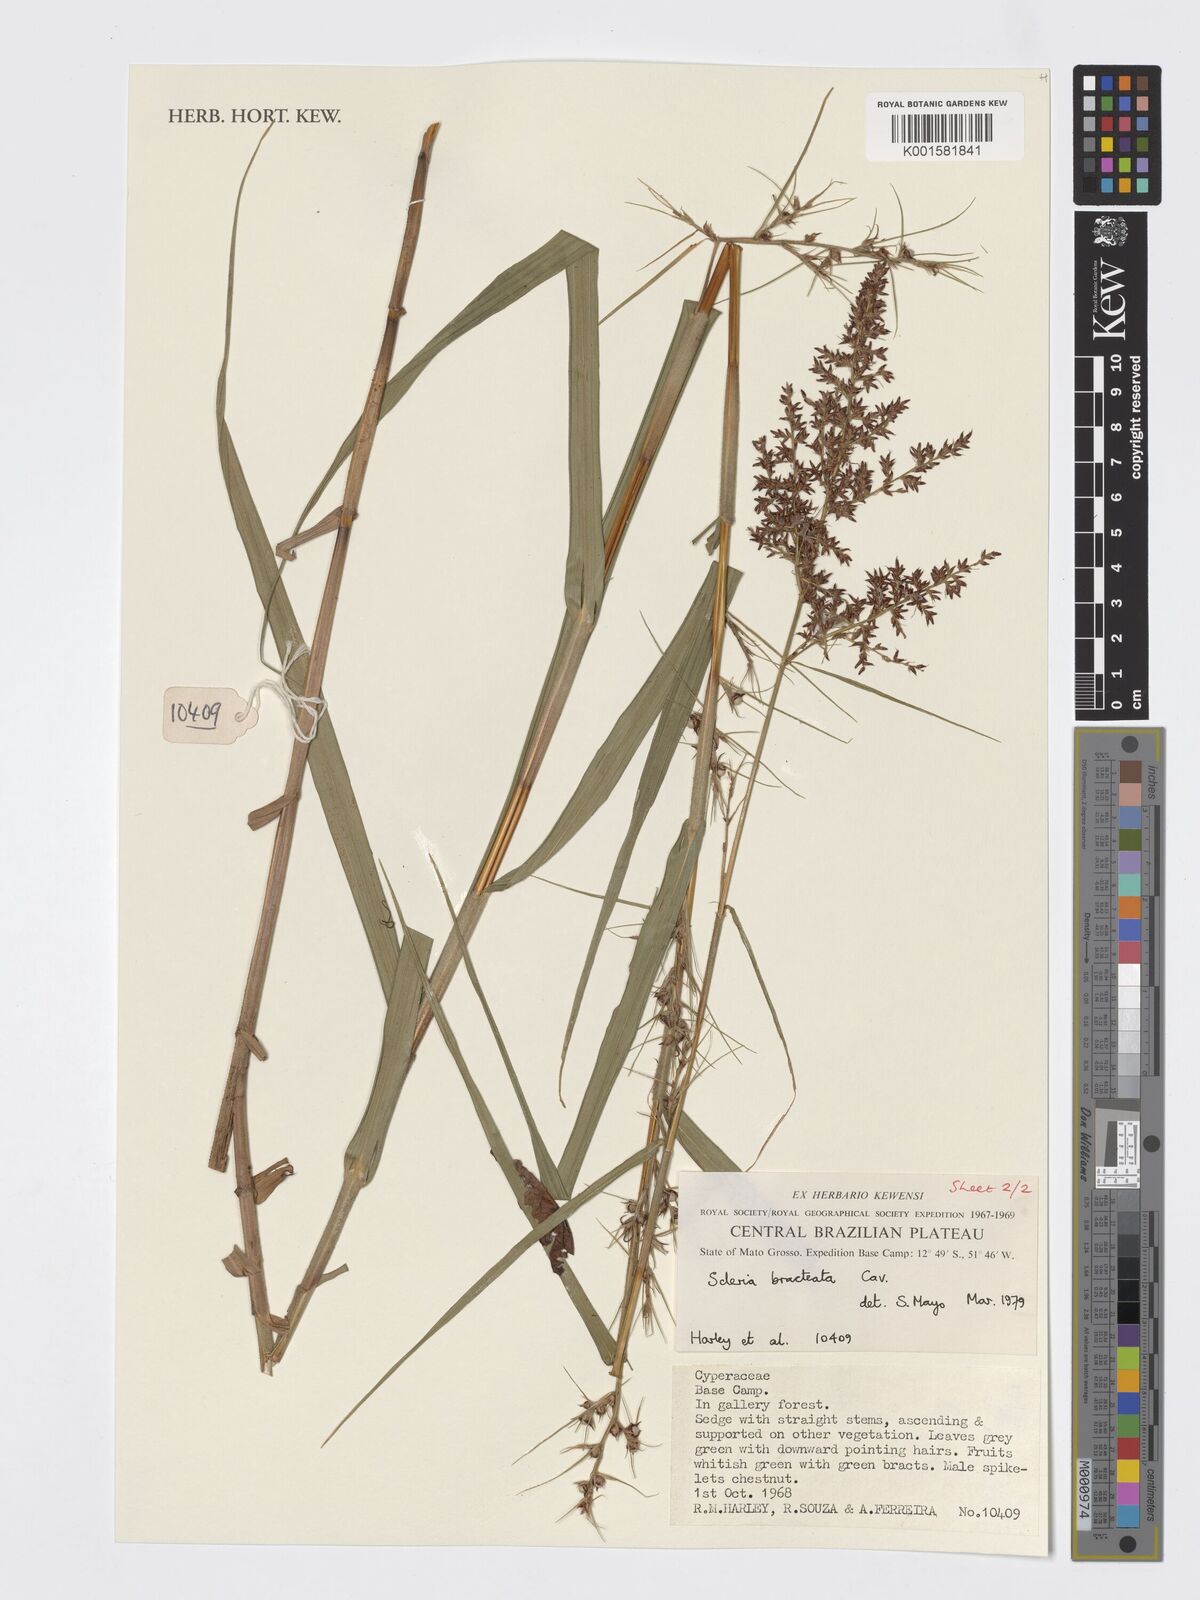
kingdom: Plantae
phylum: Tracheophyta
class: Liliopsida
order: Poales
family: Cyperaceae
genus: Scleria
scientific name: Scleria bracteata
